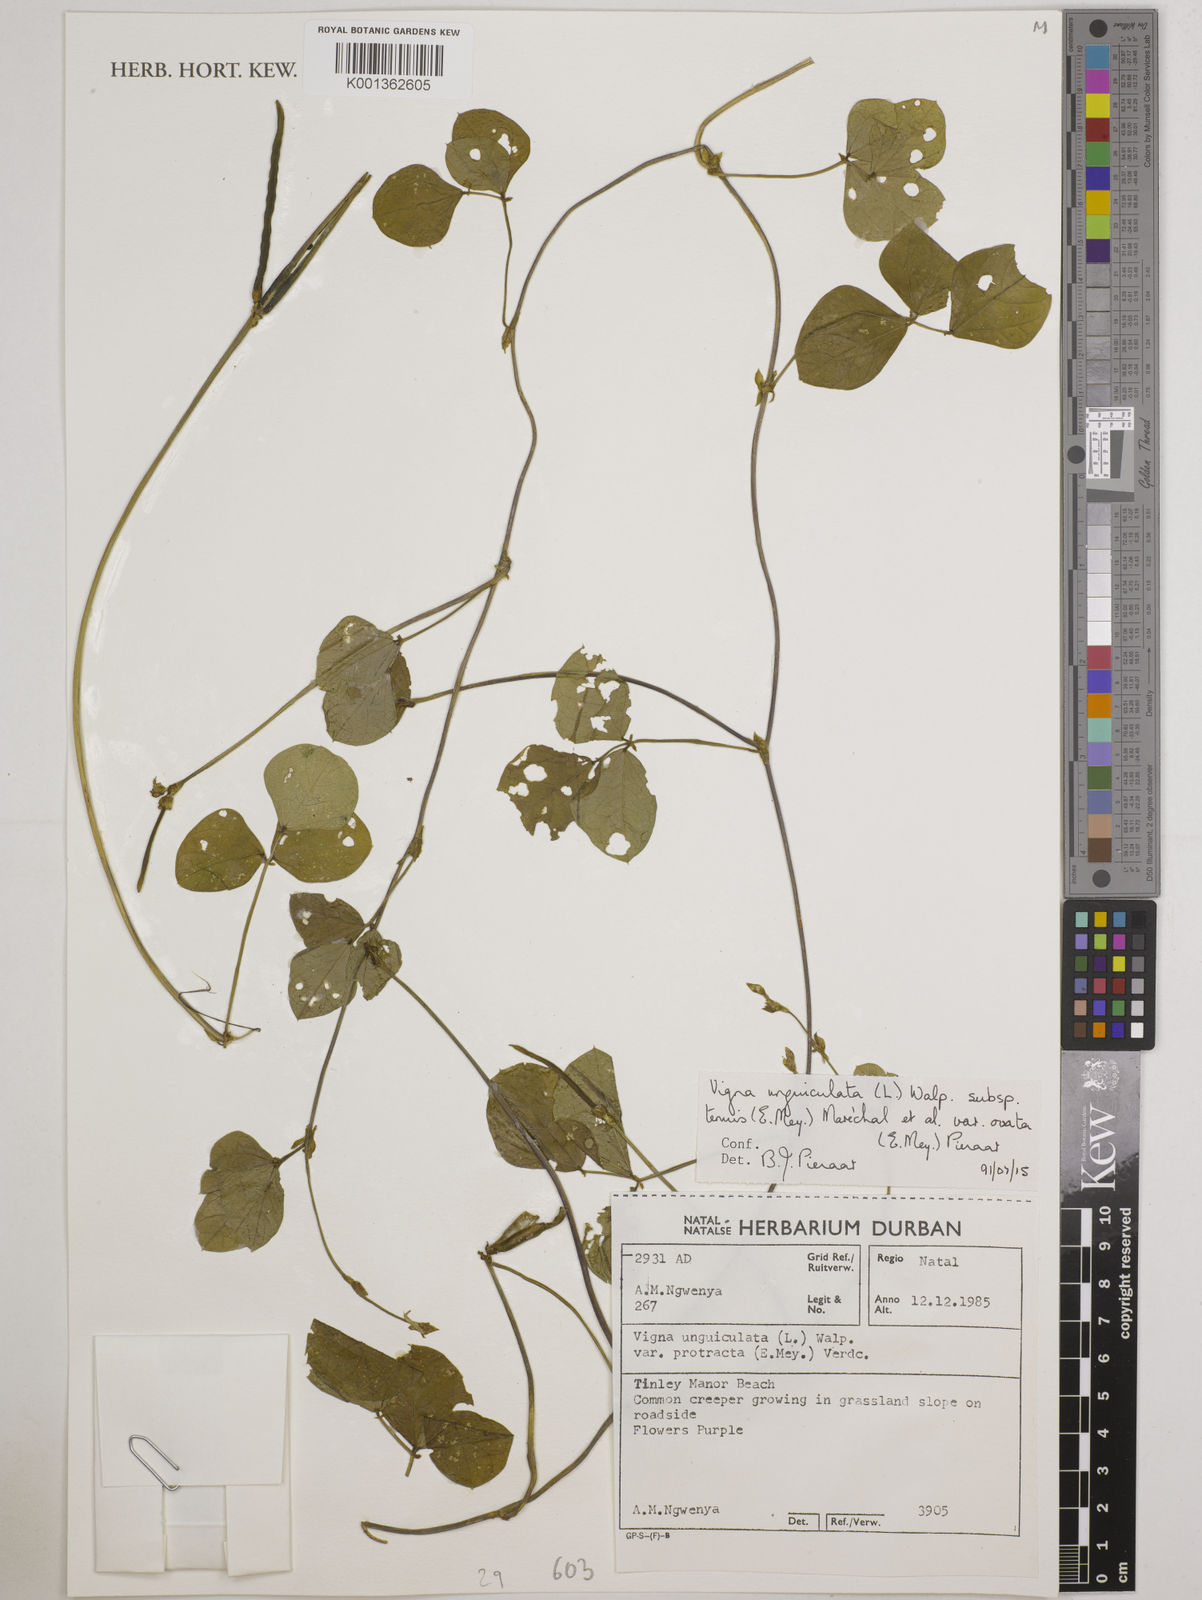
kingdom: Plantae
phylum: Tracheophyta
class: Magnoliopsida
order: Fabales
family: Fabaceae
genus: Vigna
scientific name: Vigna
